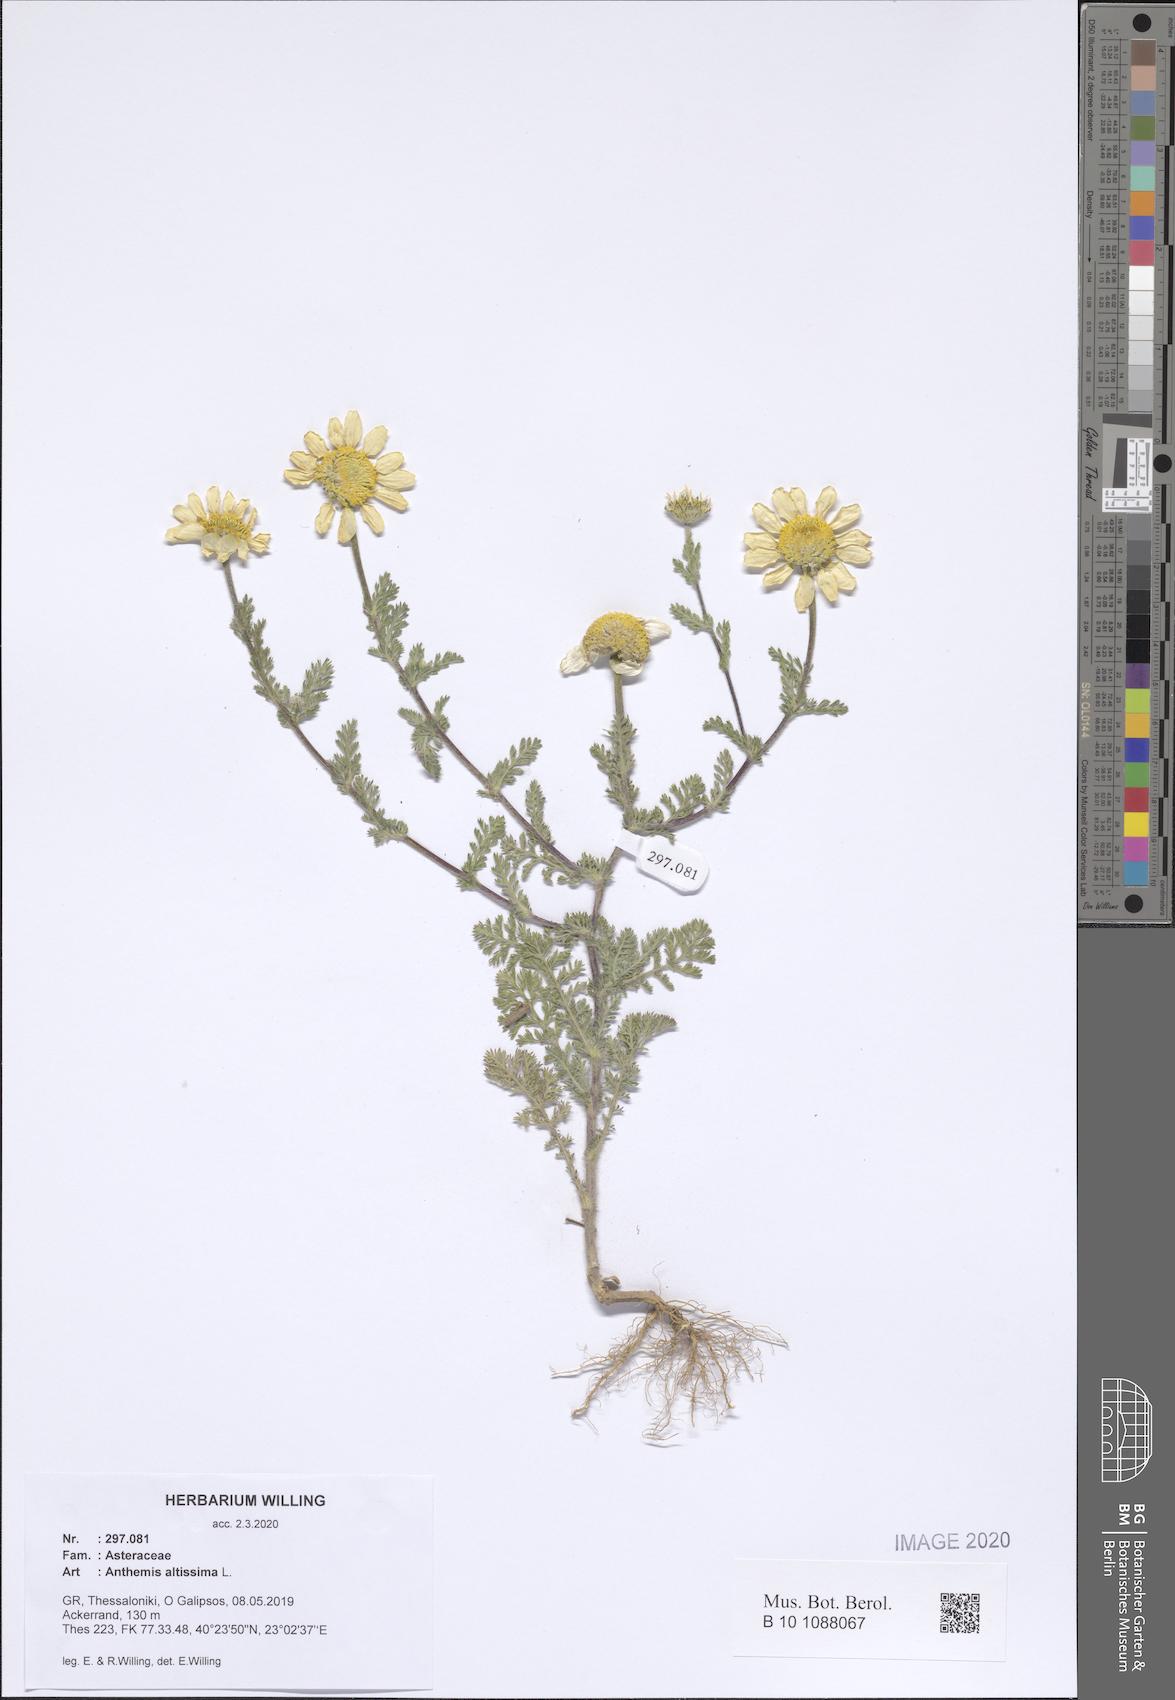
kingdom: Plantae
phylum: Tracheophyta
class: Magnoliopsida
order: Asterales
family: Asteraceae
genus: Cota
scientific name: Cota altissima
